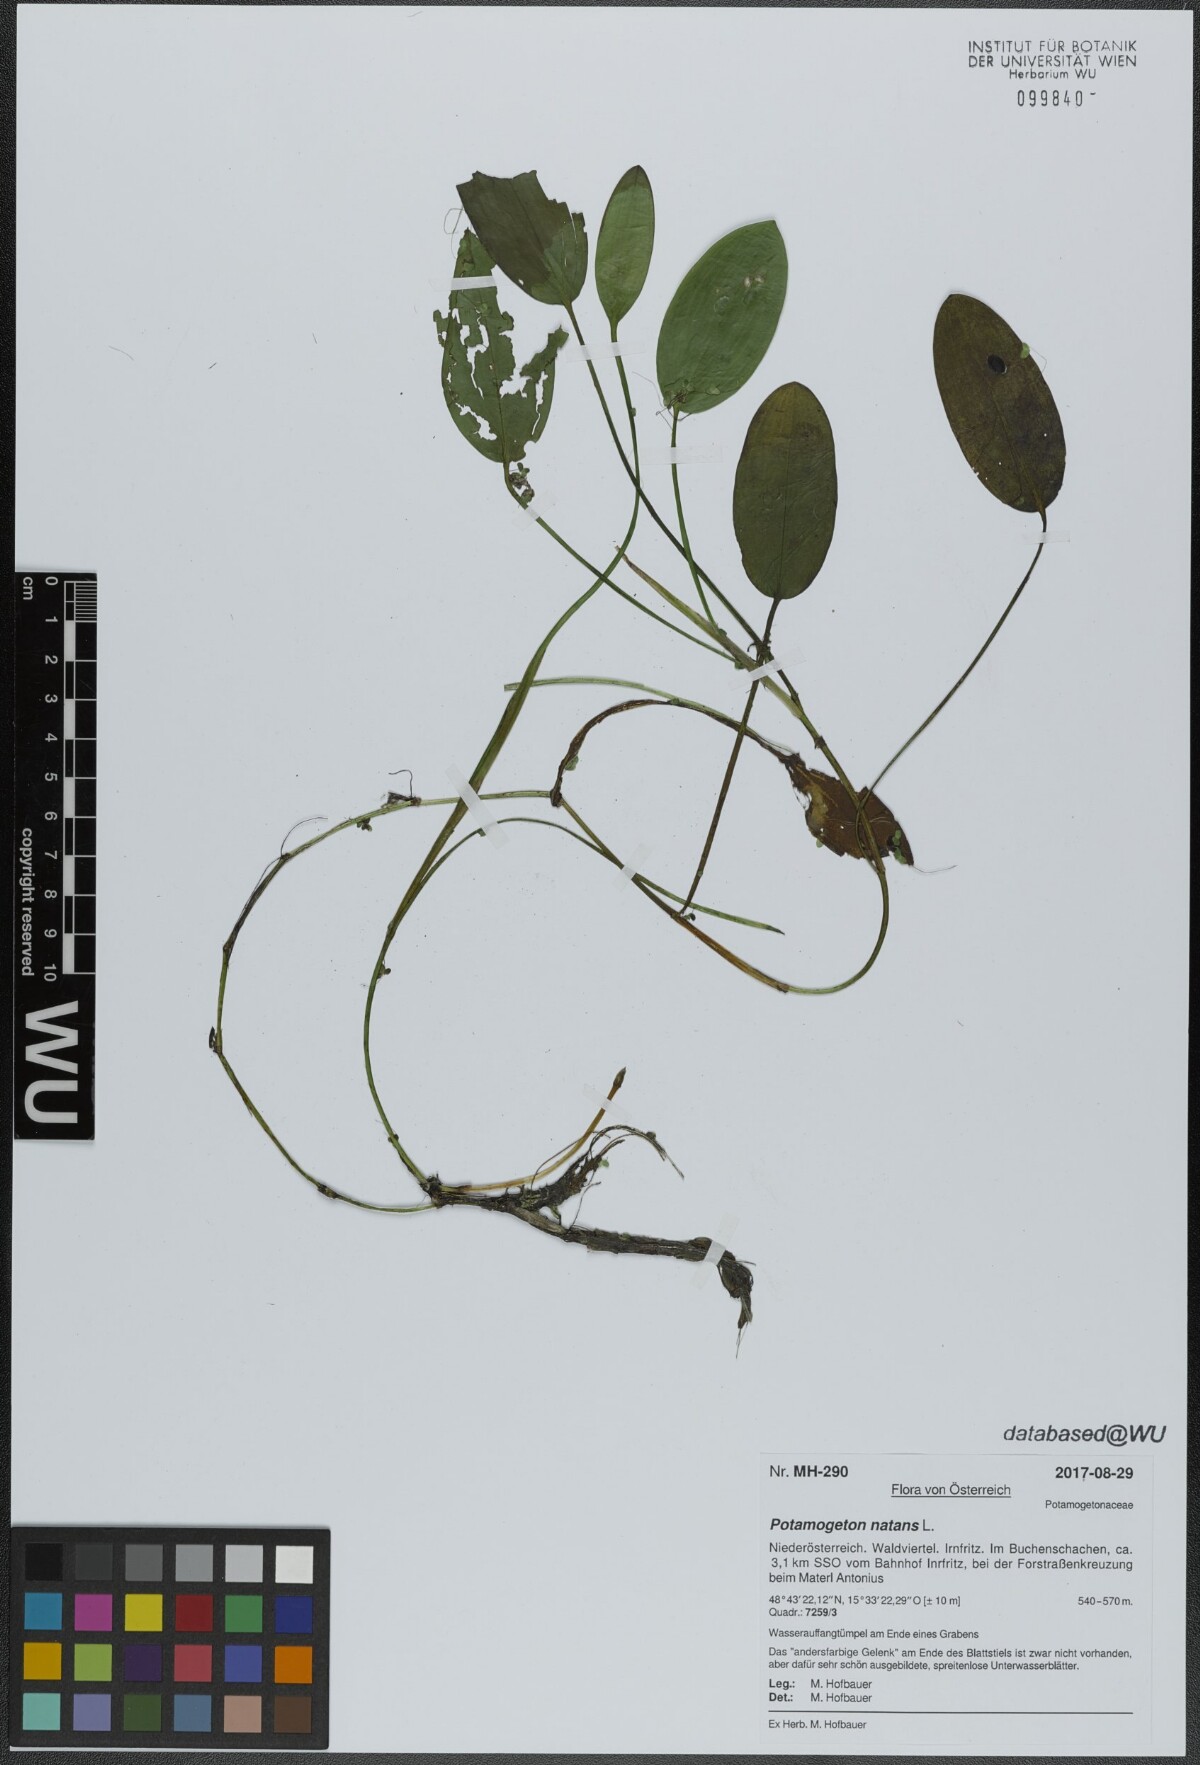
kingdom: Plantae
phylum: Tracheophyta
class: Liliopsida
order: Alismatales
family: Potamogetonaceae
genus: Potamogeton
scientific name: Potamogeton natans
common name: Broad-leaved pondweed
